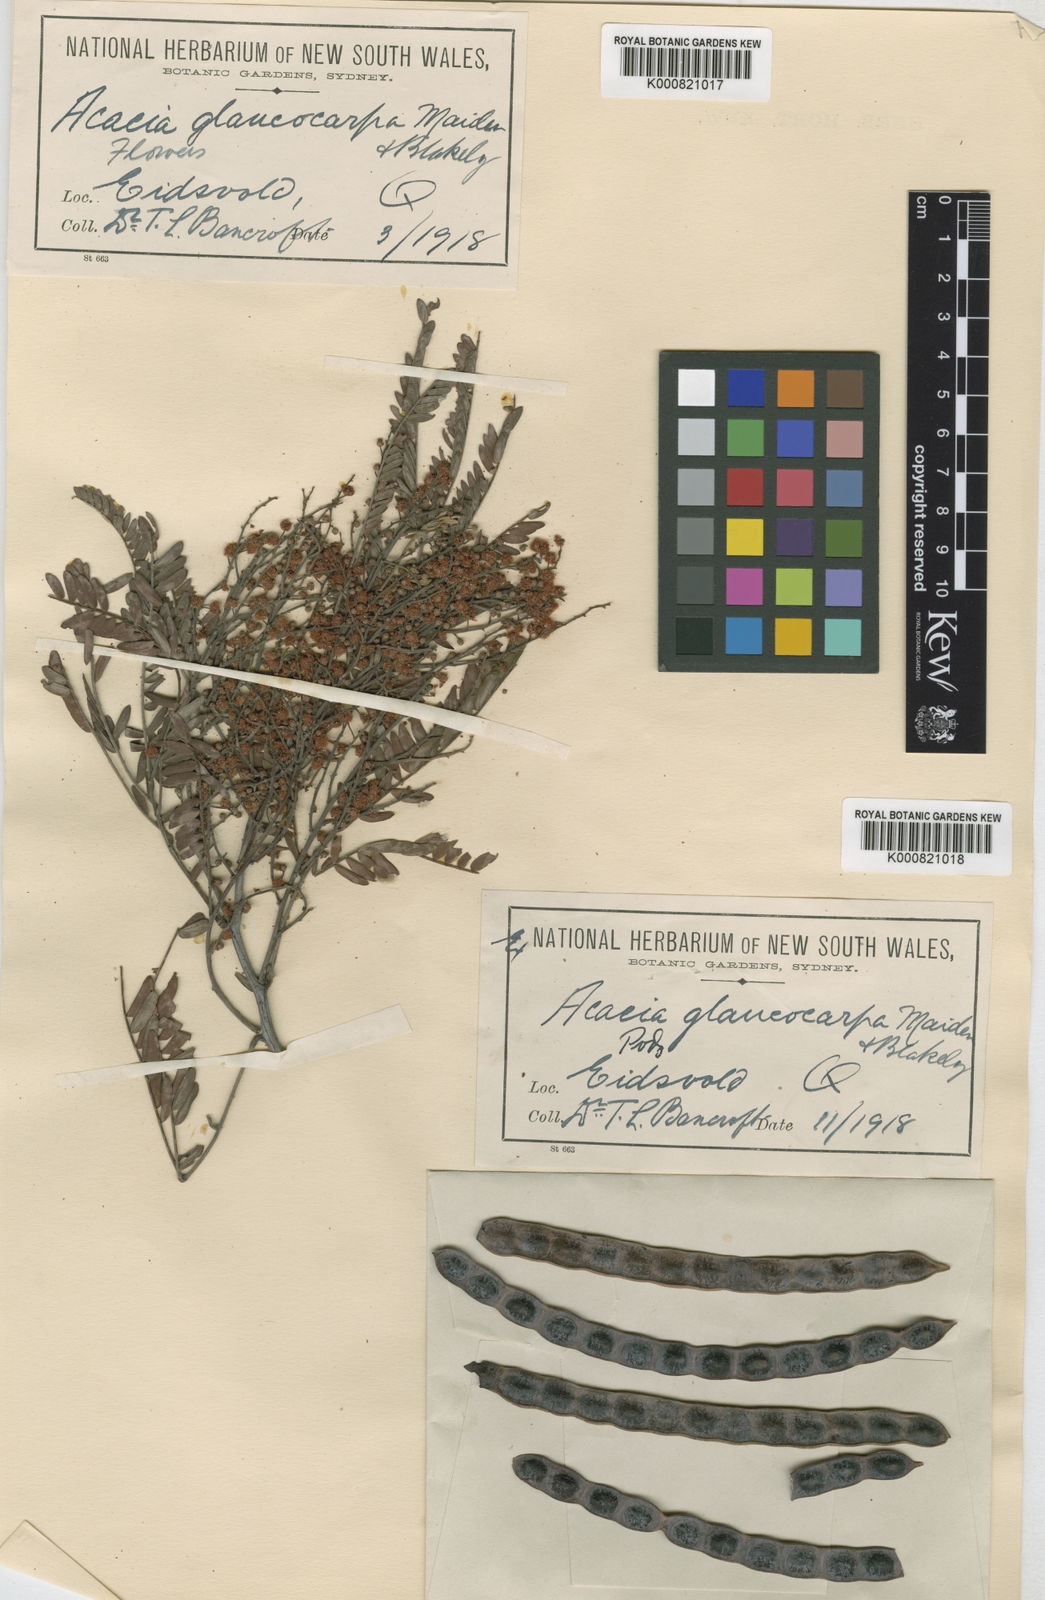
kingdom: Plantae
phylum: Tracheophyta
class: Magnoliopsida
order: Fabales
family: Fabaceae
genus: Acacia
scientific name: Acacia glaucocarpa
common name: Glory wattle
